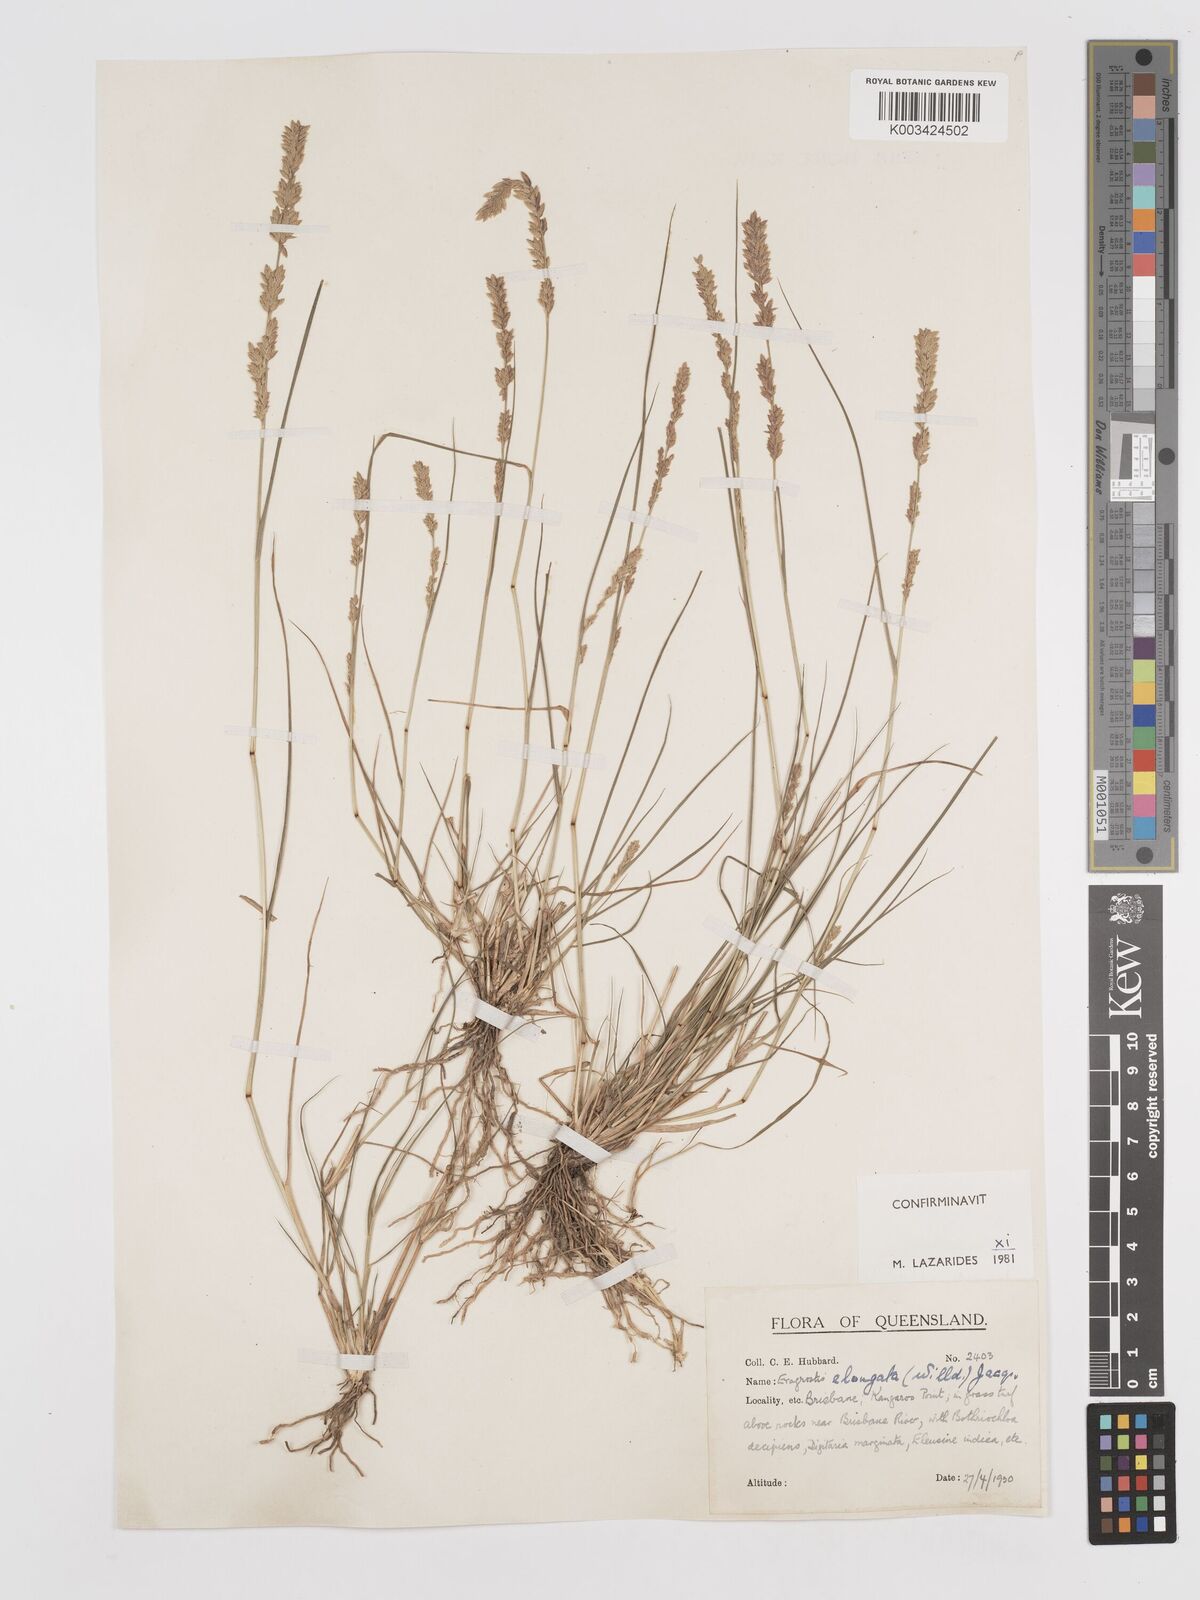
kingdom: Plantae
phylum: Tracheophyta
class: Liliopsida
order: Poales
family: Poaceae
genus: Eragrostis
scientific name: Eragrostis elongata
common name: Long lovegrass
